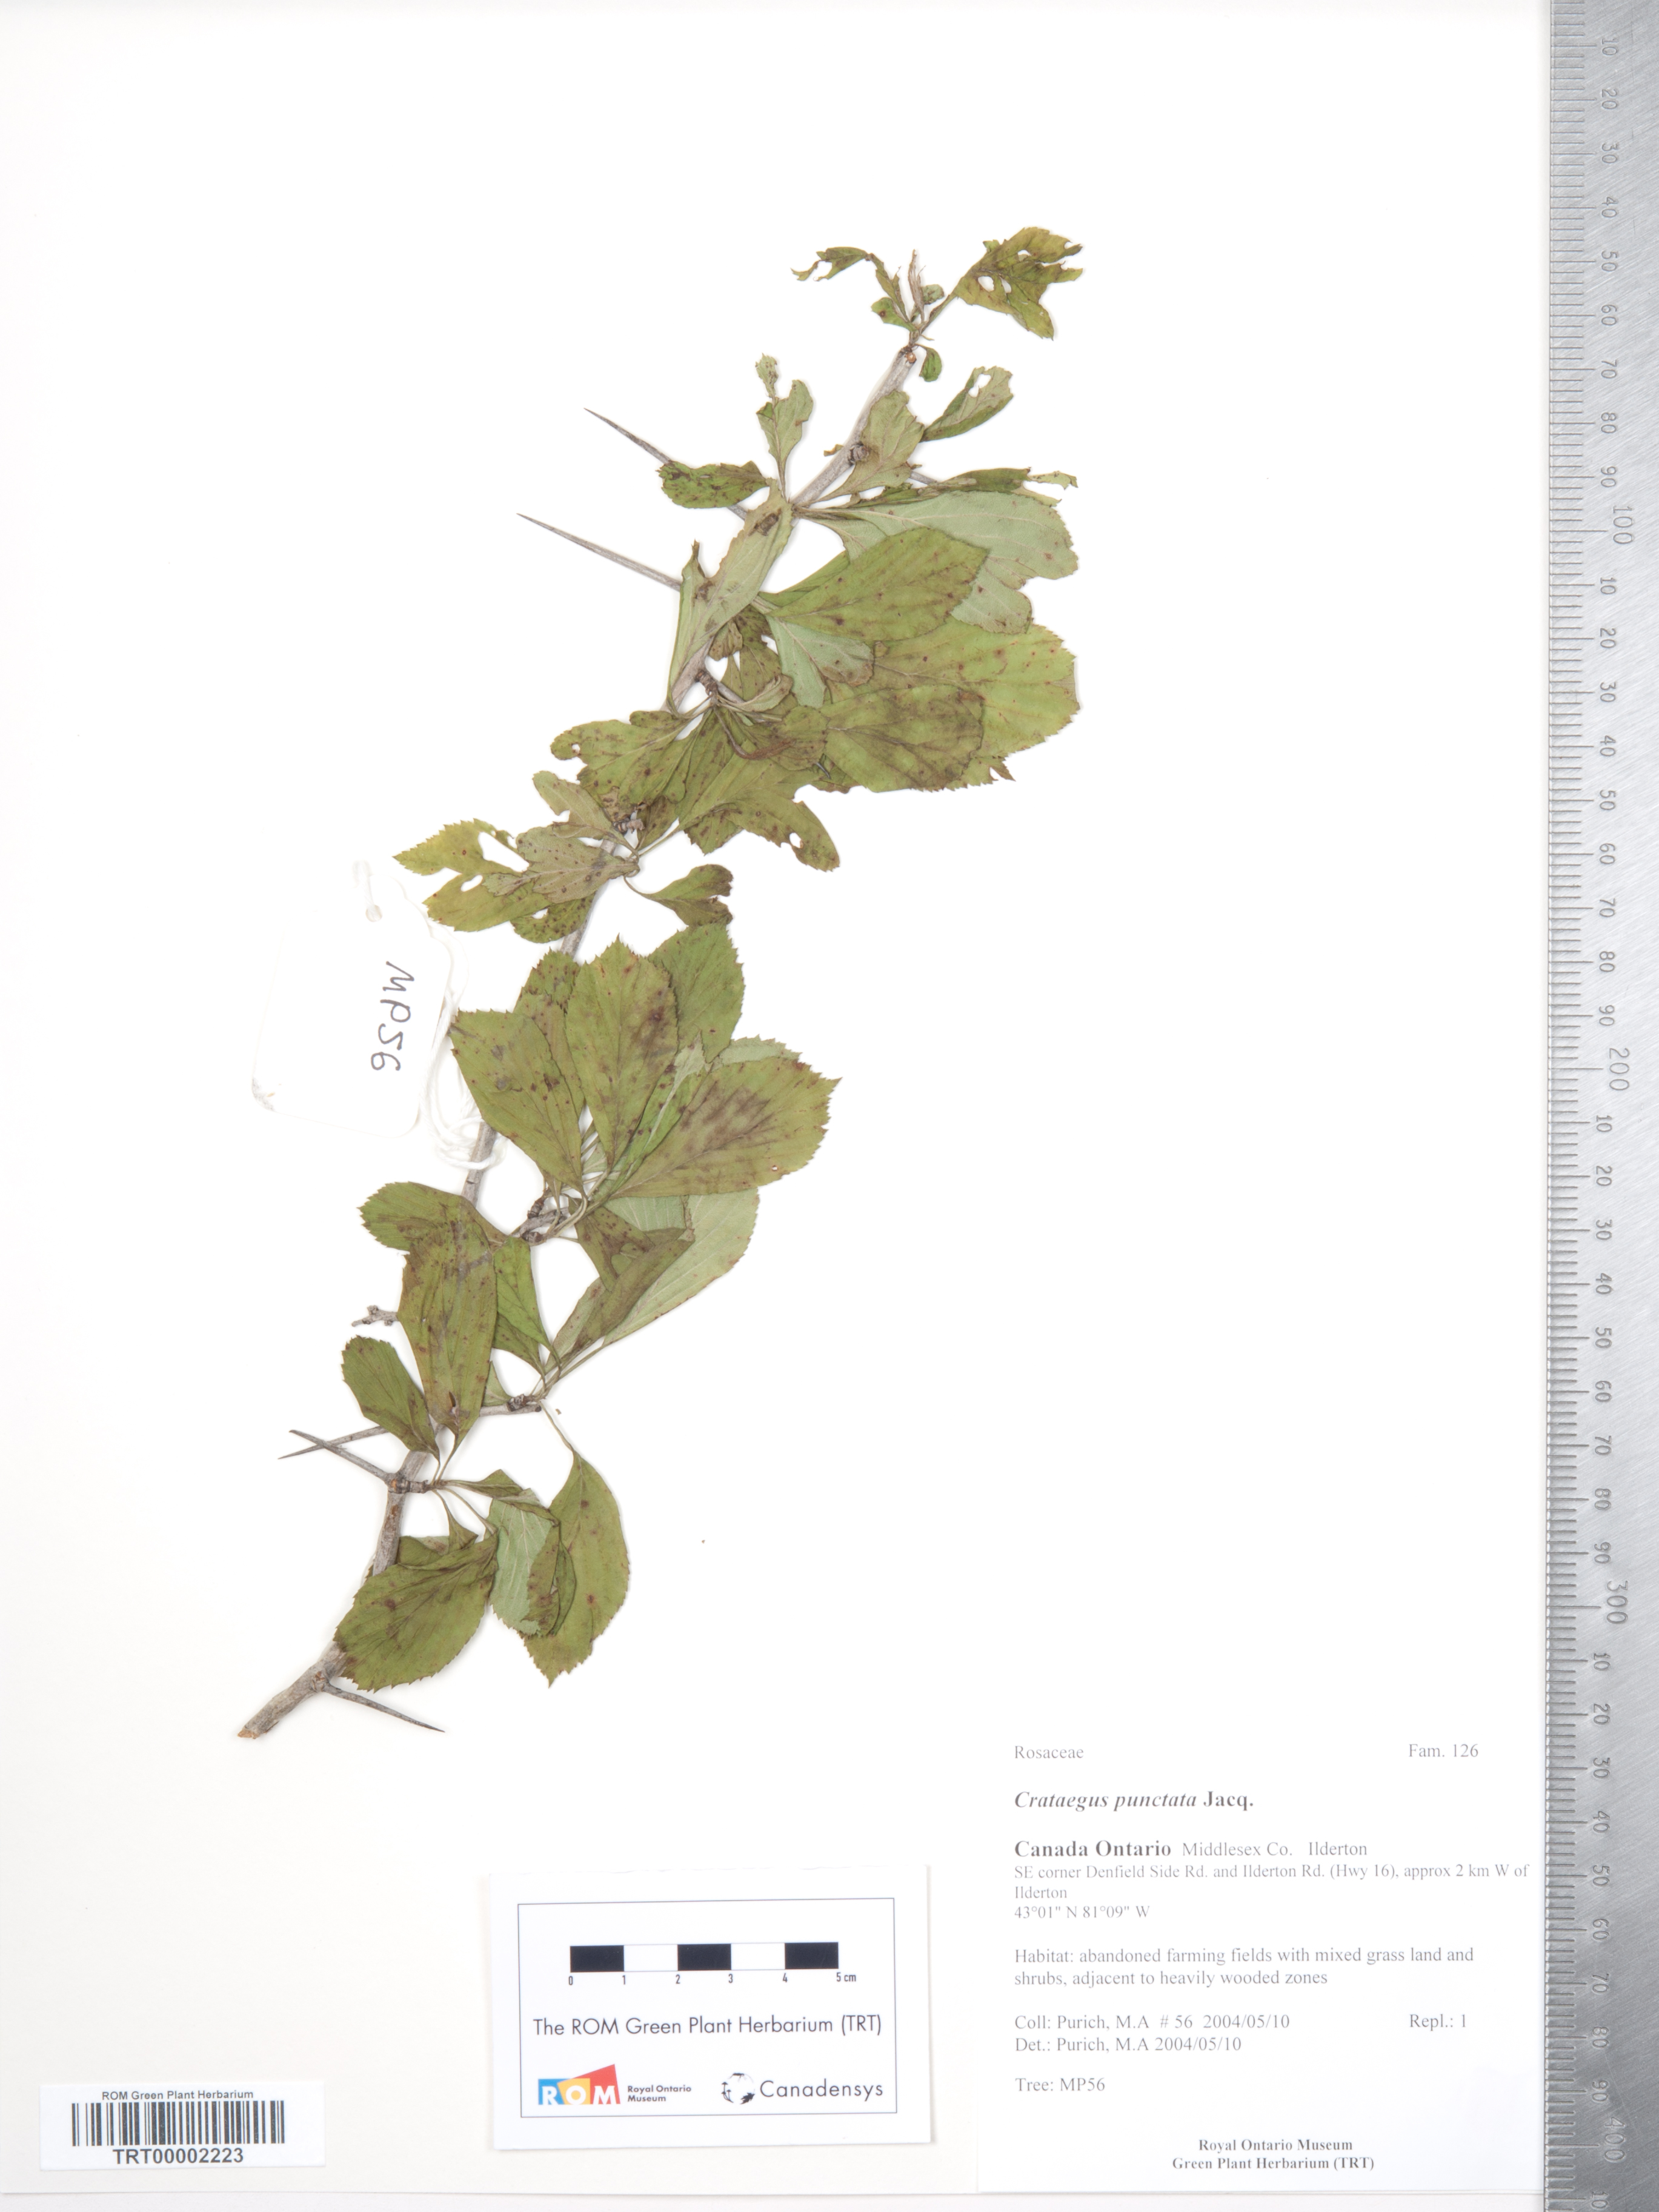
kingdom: Plantae
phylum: Tracheophyta
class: Magnoliopsida
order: Rosales
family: Rosaceae
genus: Crataegus
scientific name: Crataegus punctata
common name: Dotted hawthorn
